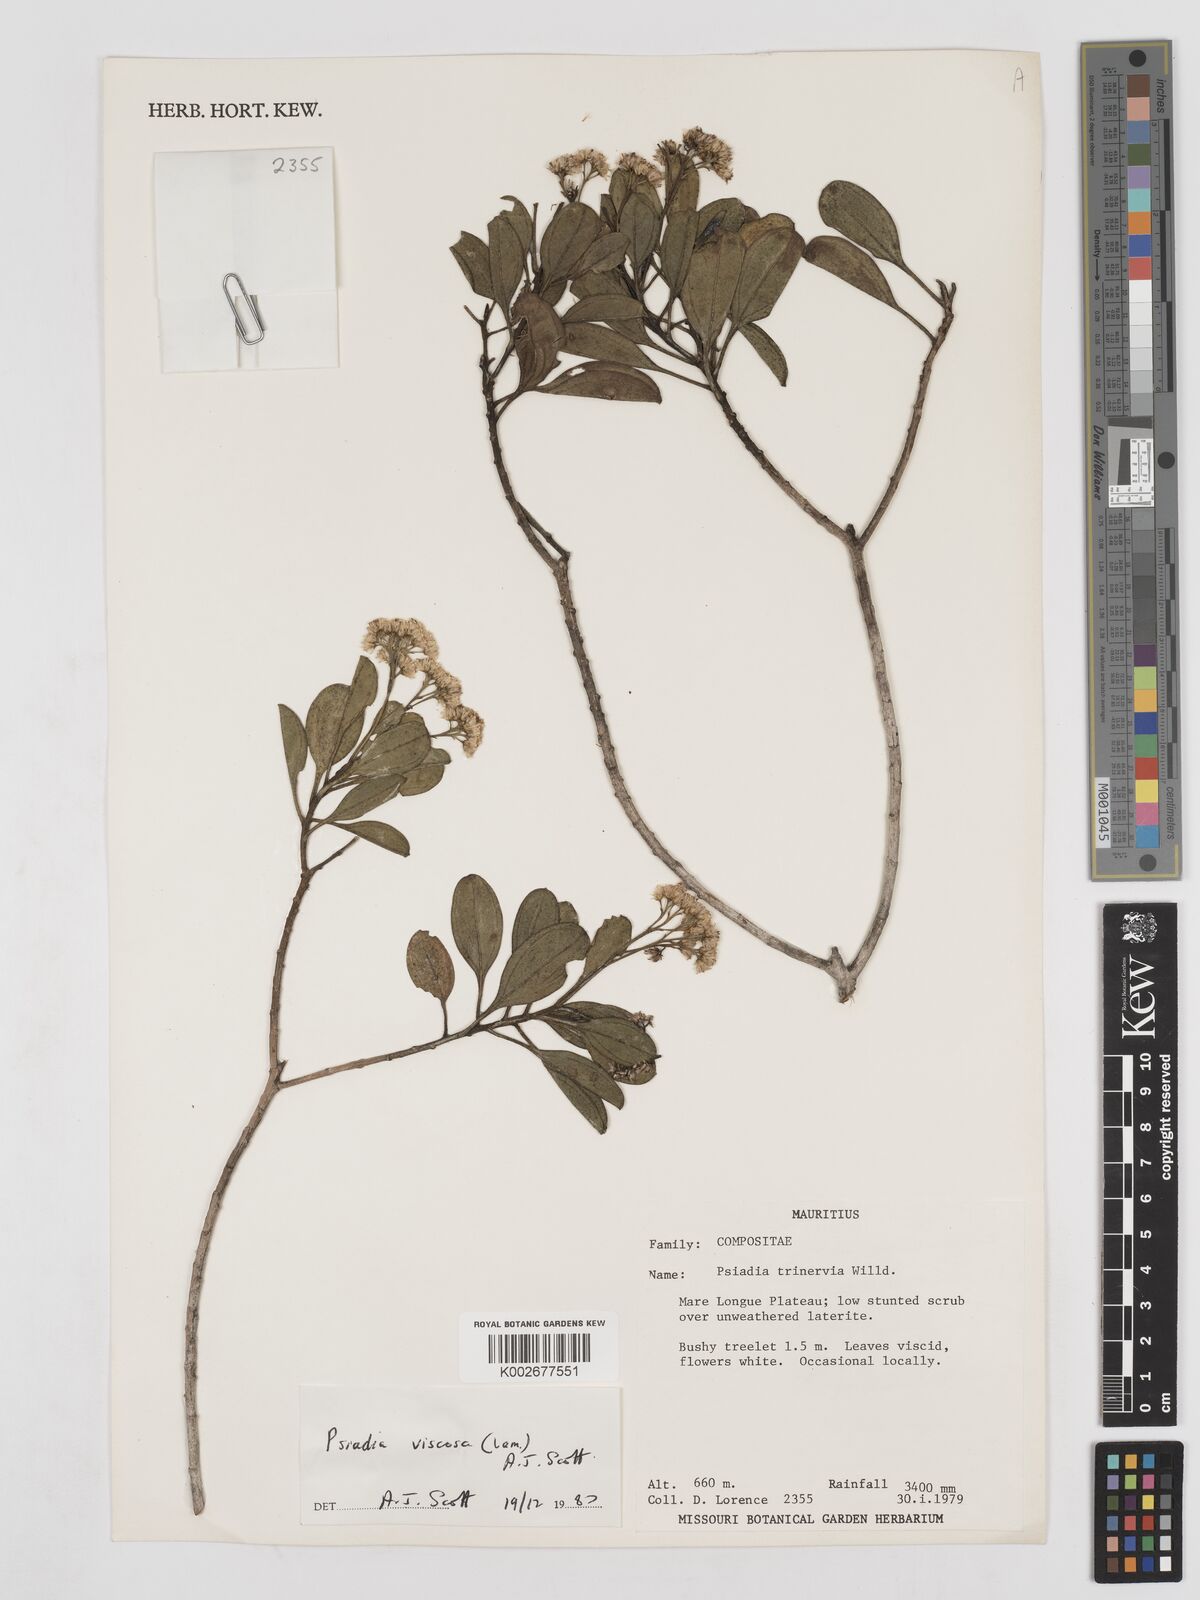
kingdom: Plantae
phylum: Tracheophyta
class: Magnoliopsida
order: Asterales
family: Asteraceae
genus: Psiadia
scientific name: Psiadia viscosa
